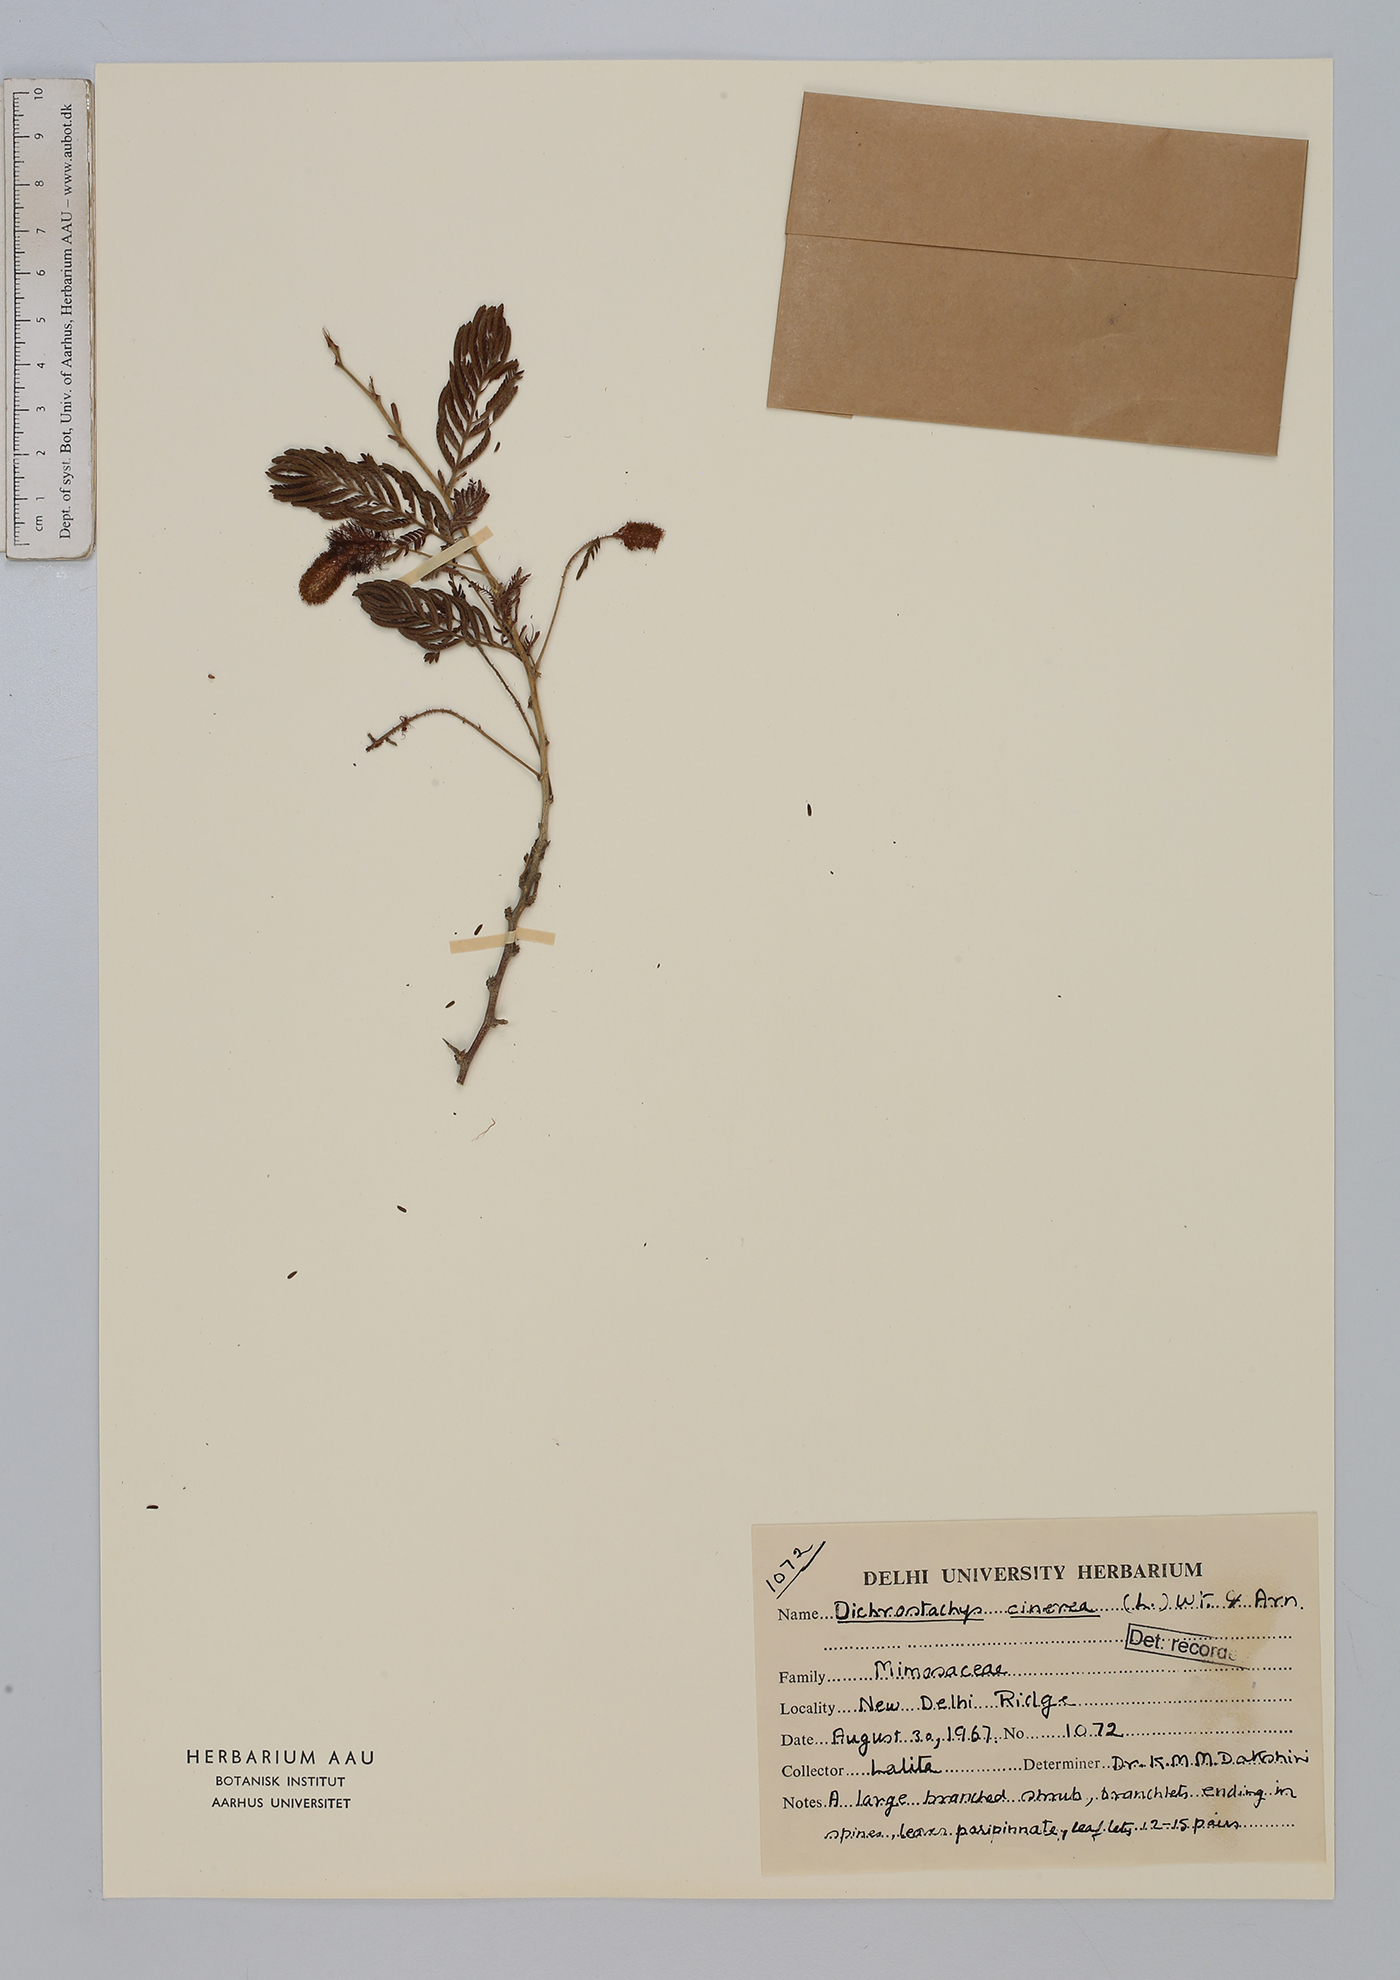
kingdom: Plantae
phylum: Tracheophyta
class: Magnoliopsida
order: Fabales
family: Fabaceae
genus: Dichrostachys
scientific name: Dichrostachys cinerea
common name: Sicklebush
